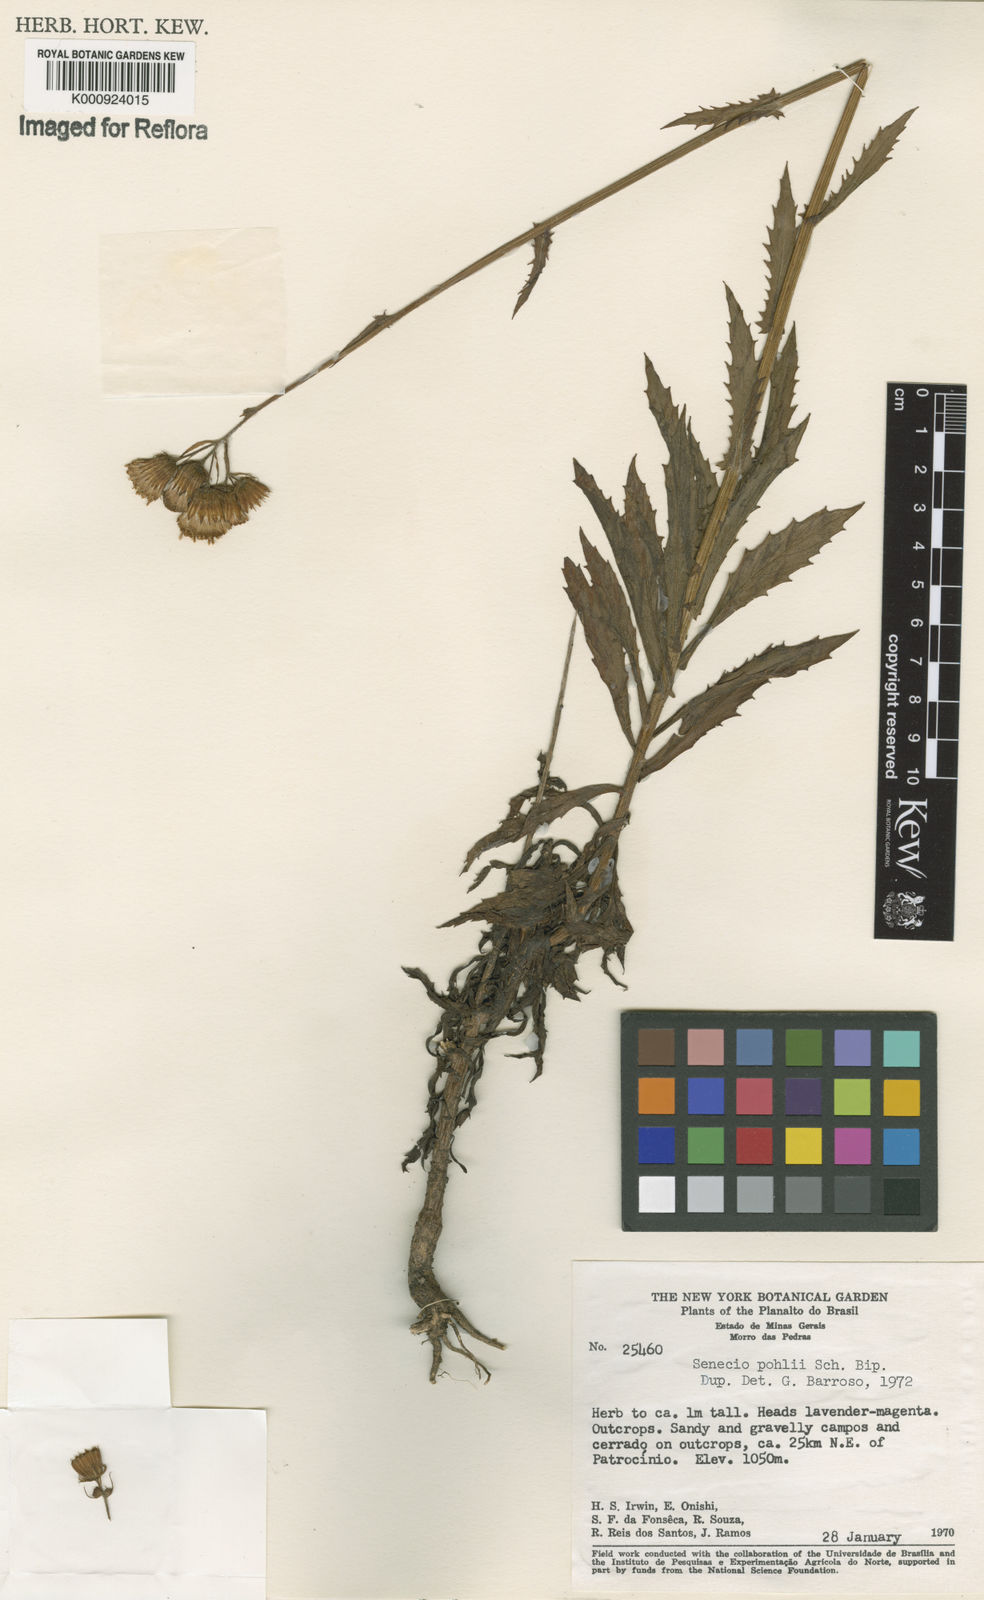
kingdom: Plantae
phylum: Tracheophyta
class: Magnoliopsida
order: Asterales
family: Asteraceae
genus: Pseudogynoxys
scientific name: Pseudogynoxys pohlii
